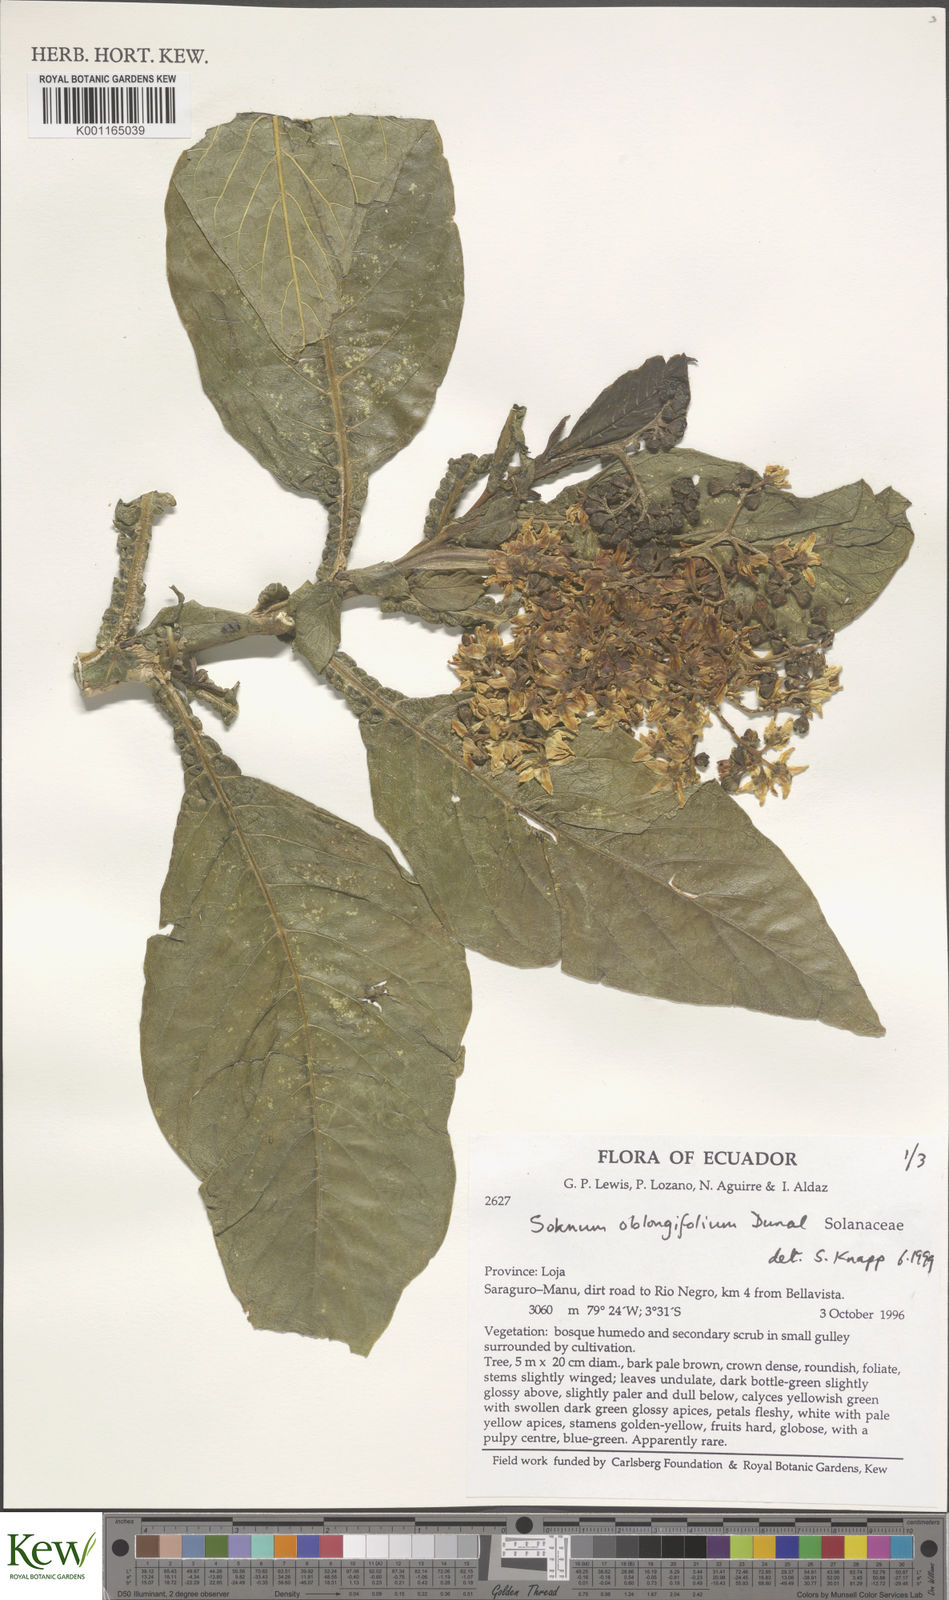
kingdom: Plantae
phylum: Tracheophyta
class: Magnoliopsida
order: Solanales
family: Solanaceae
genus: Solanum
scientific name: Solanum oblongifolium
